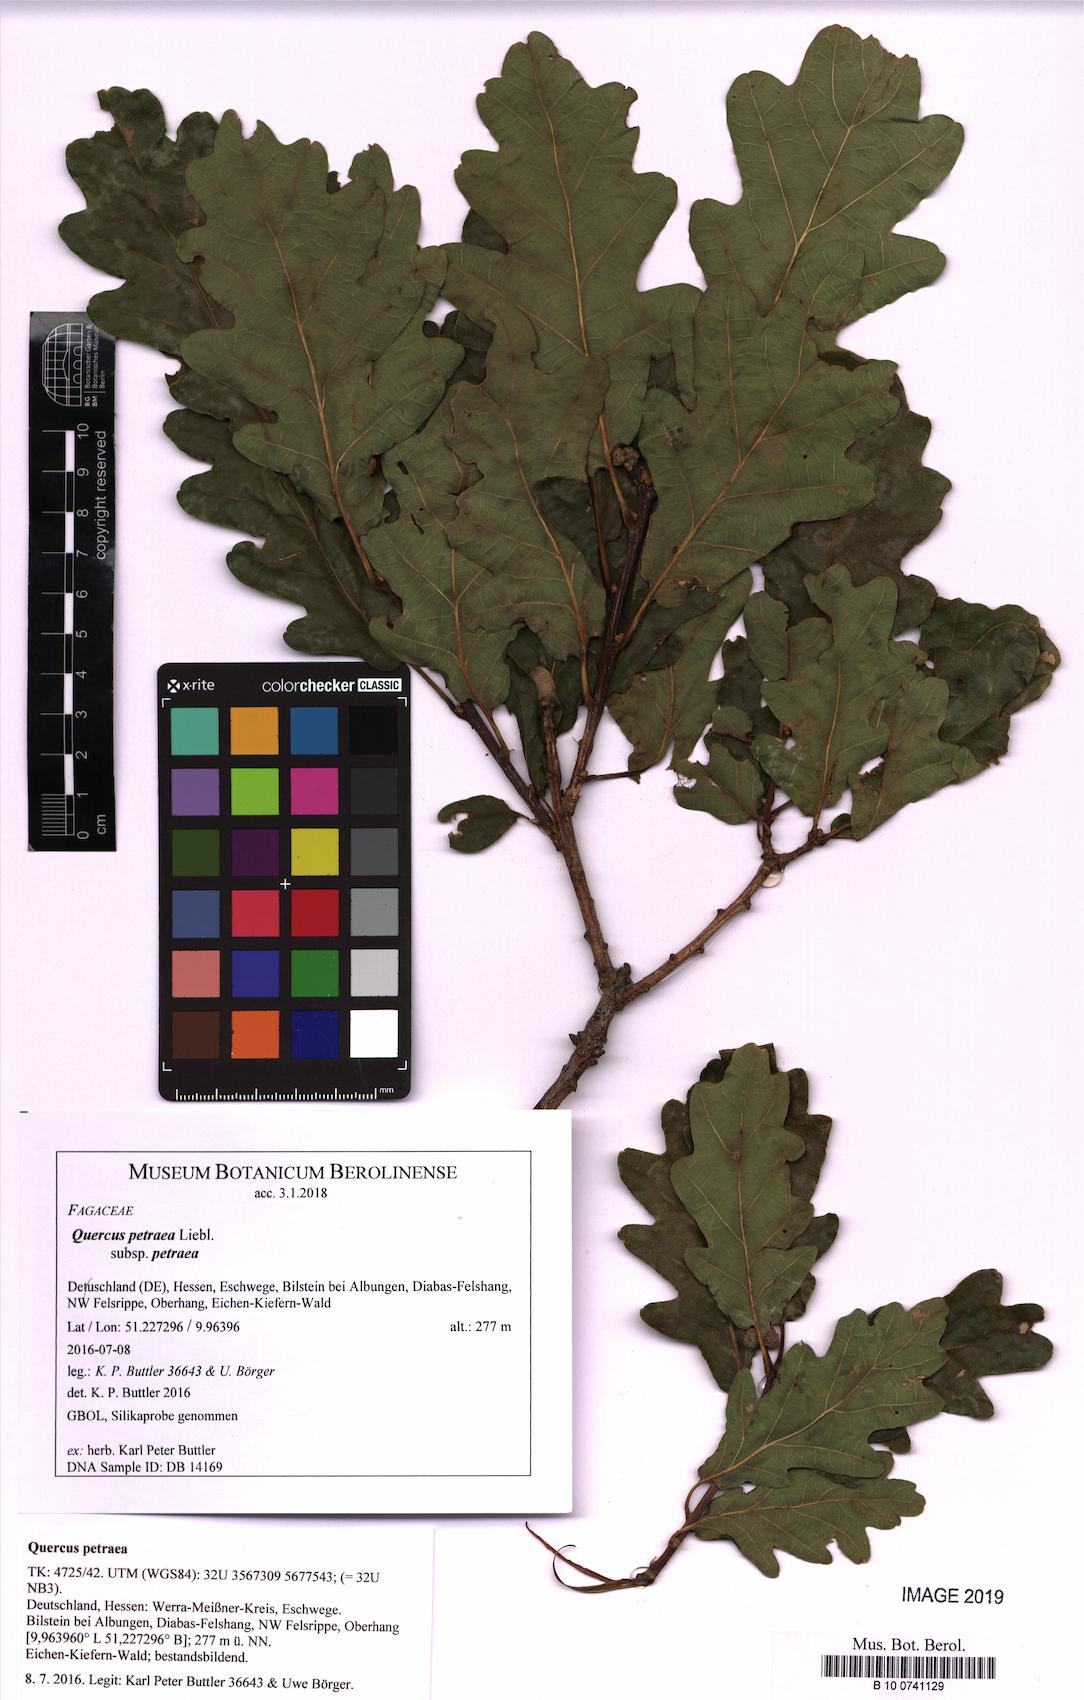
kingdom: Plantae
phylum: Tracheophyta
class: Magnoliopsida
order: Fagales
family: Fagaceae
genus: Quercus
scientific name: Quercus petraea
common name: Sessile oak
